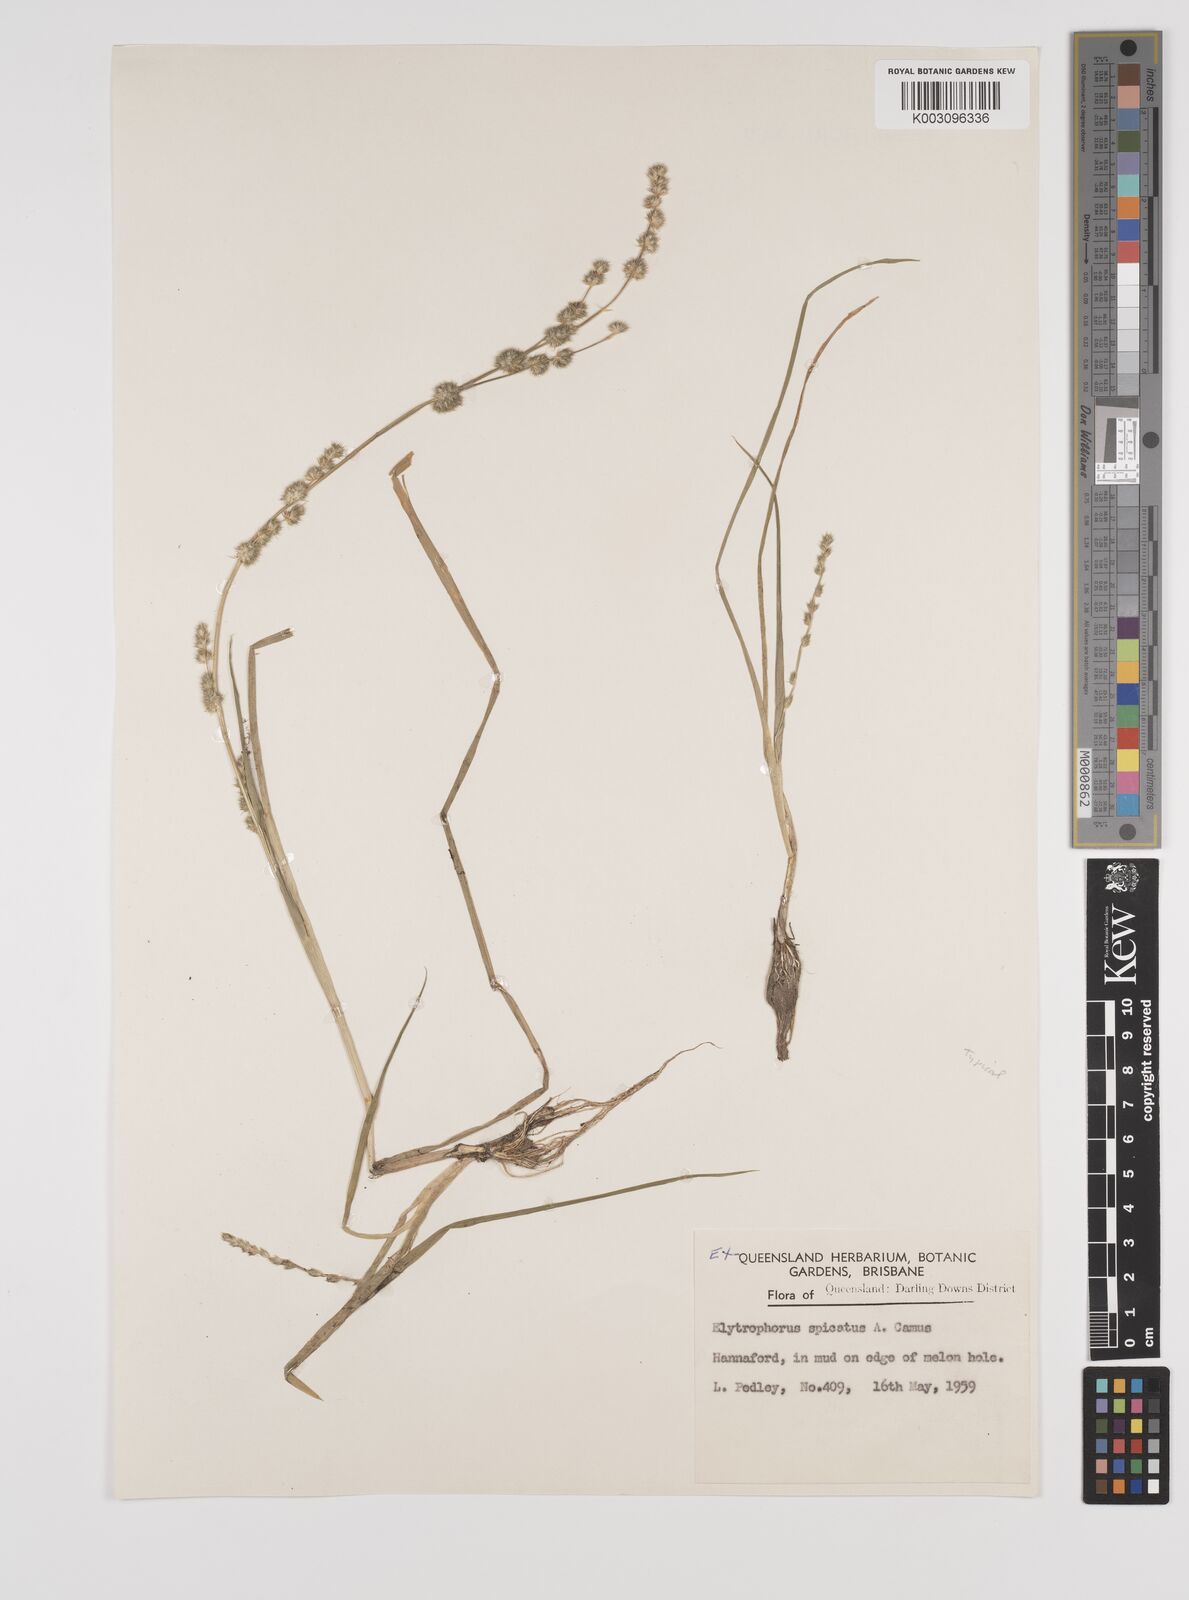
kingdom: Plantae
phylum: Tracheophyta
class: Liliopsida
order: Poales
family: Poaceae
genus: Elytrophorus
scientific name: Elytrophorus spicatus
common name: Spike grass
